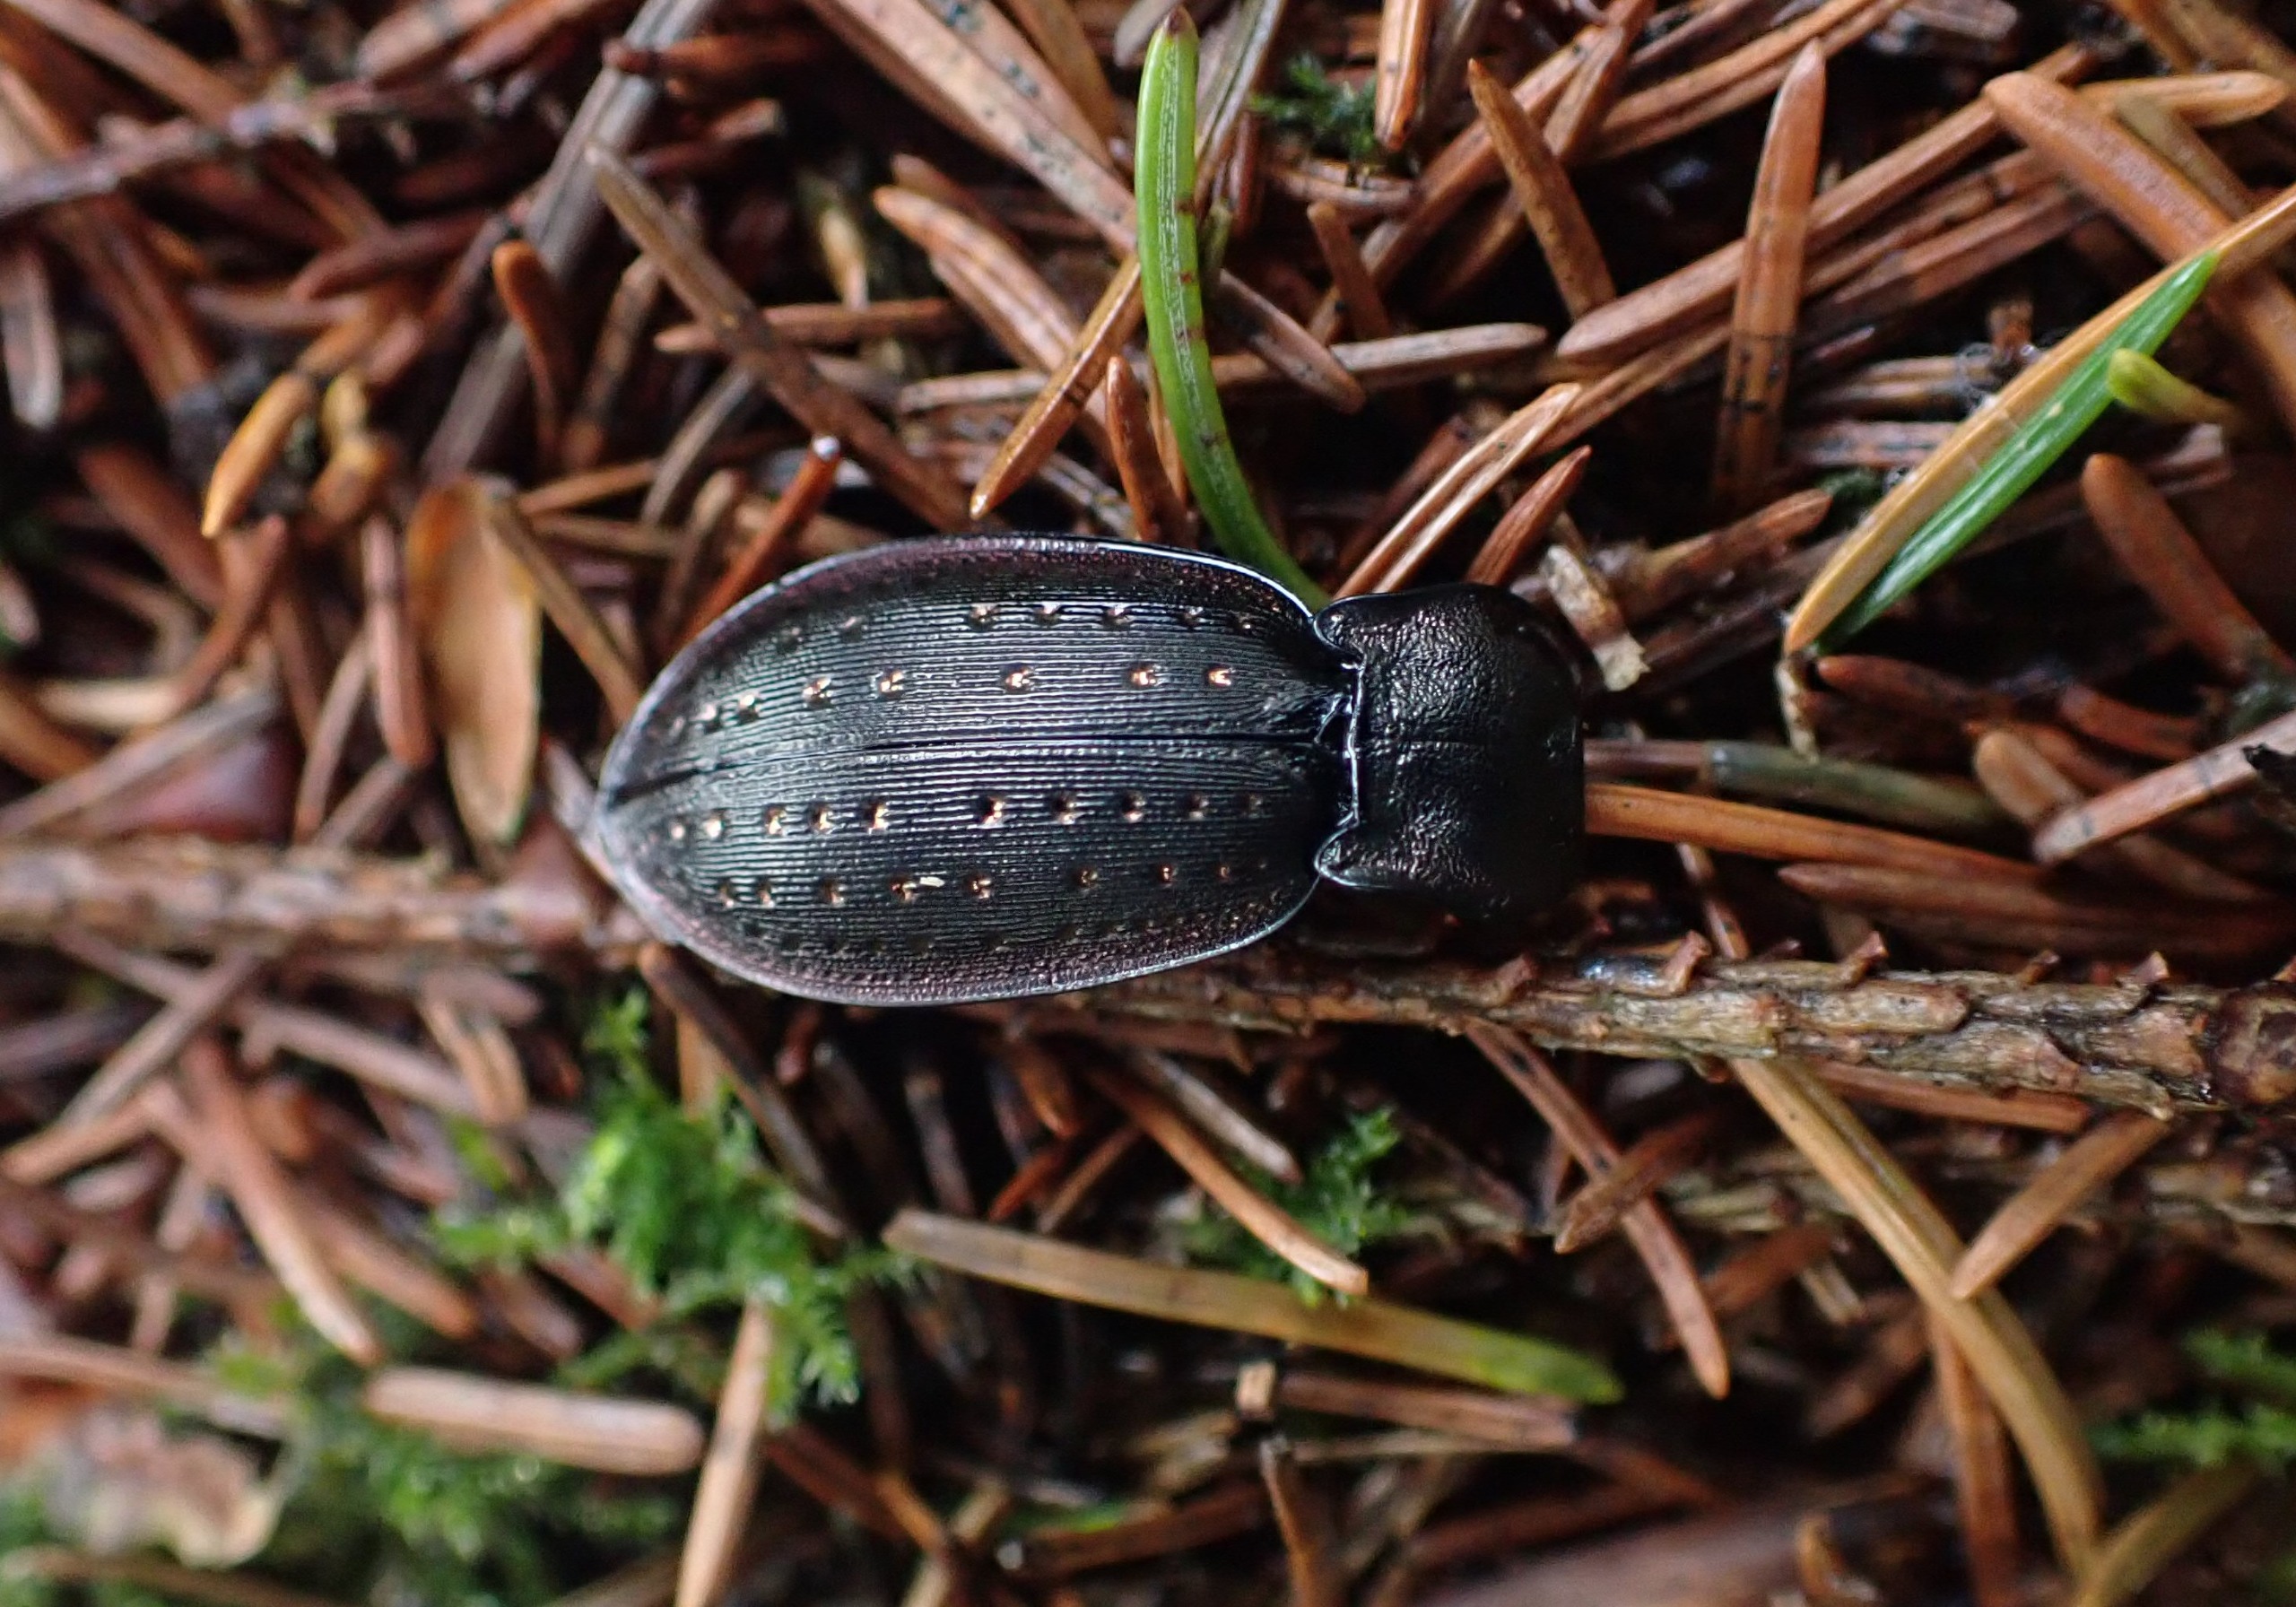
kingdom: Animalia
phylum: Arthropoda
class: Insecta
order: Coleoptera
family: Carabidae
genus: Carabus
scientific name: Carabus hortensis
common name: Guldpletløber
